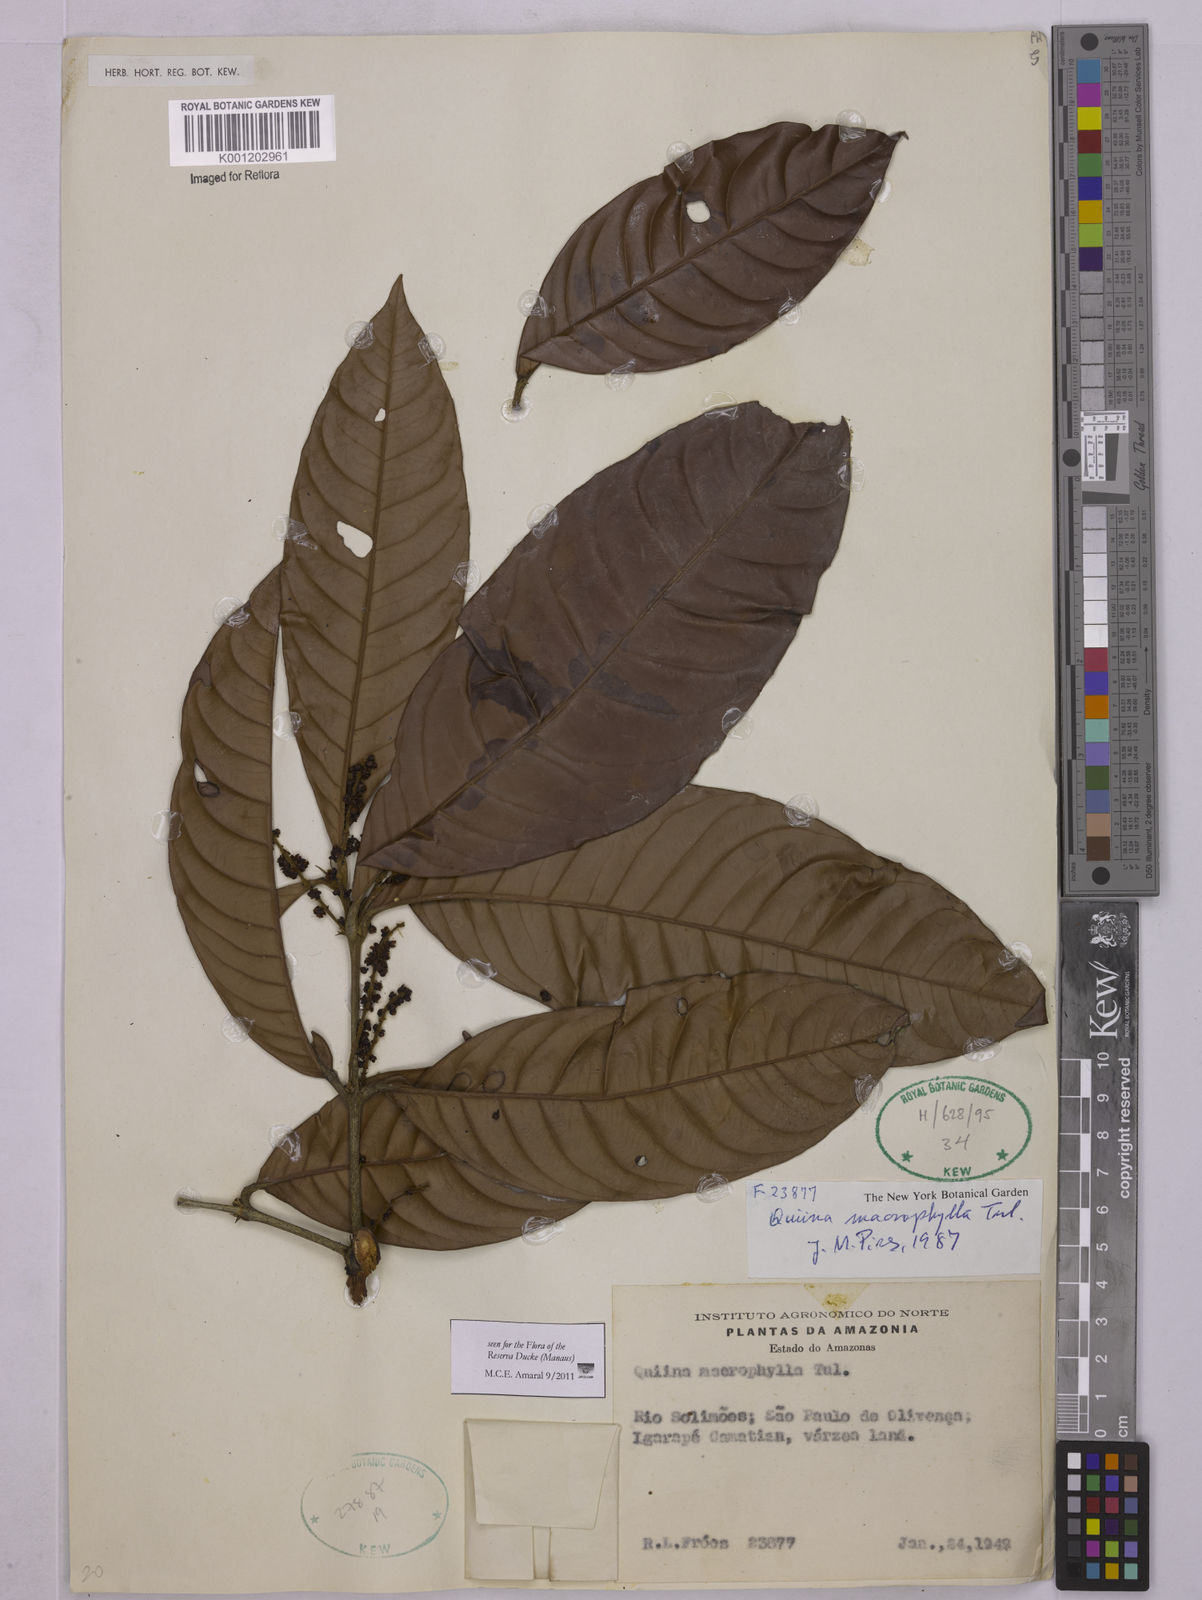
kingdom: Plantae
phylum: Tracheophyta
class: Magnoliopsida
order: Malpighiales
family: Quiinaceae
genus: Quiina
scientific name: Quiina macrophylla
